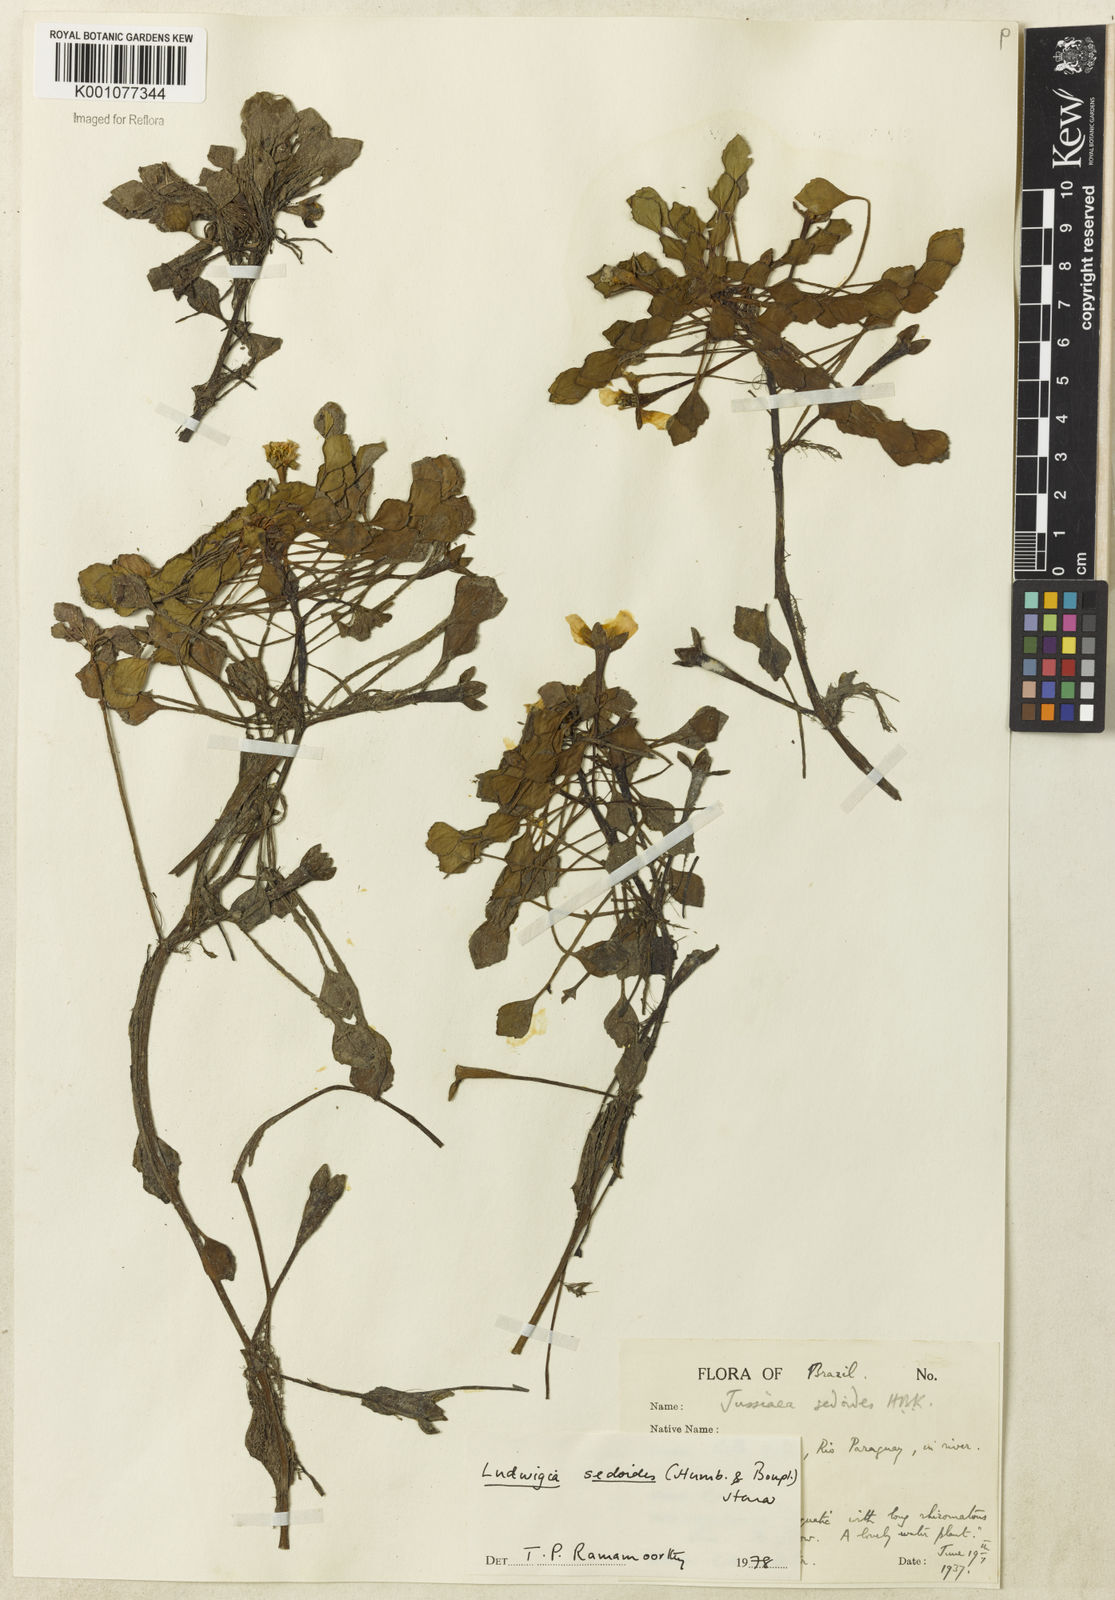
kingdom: Plantae
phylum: Tracheophyta
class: Magnoliopsida
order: Myrtales
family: Onagraceae
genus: Ludwigia
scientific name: Ludwigia sedoides
